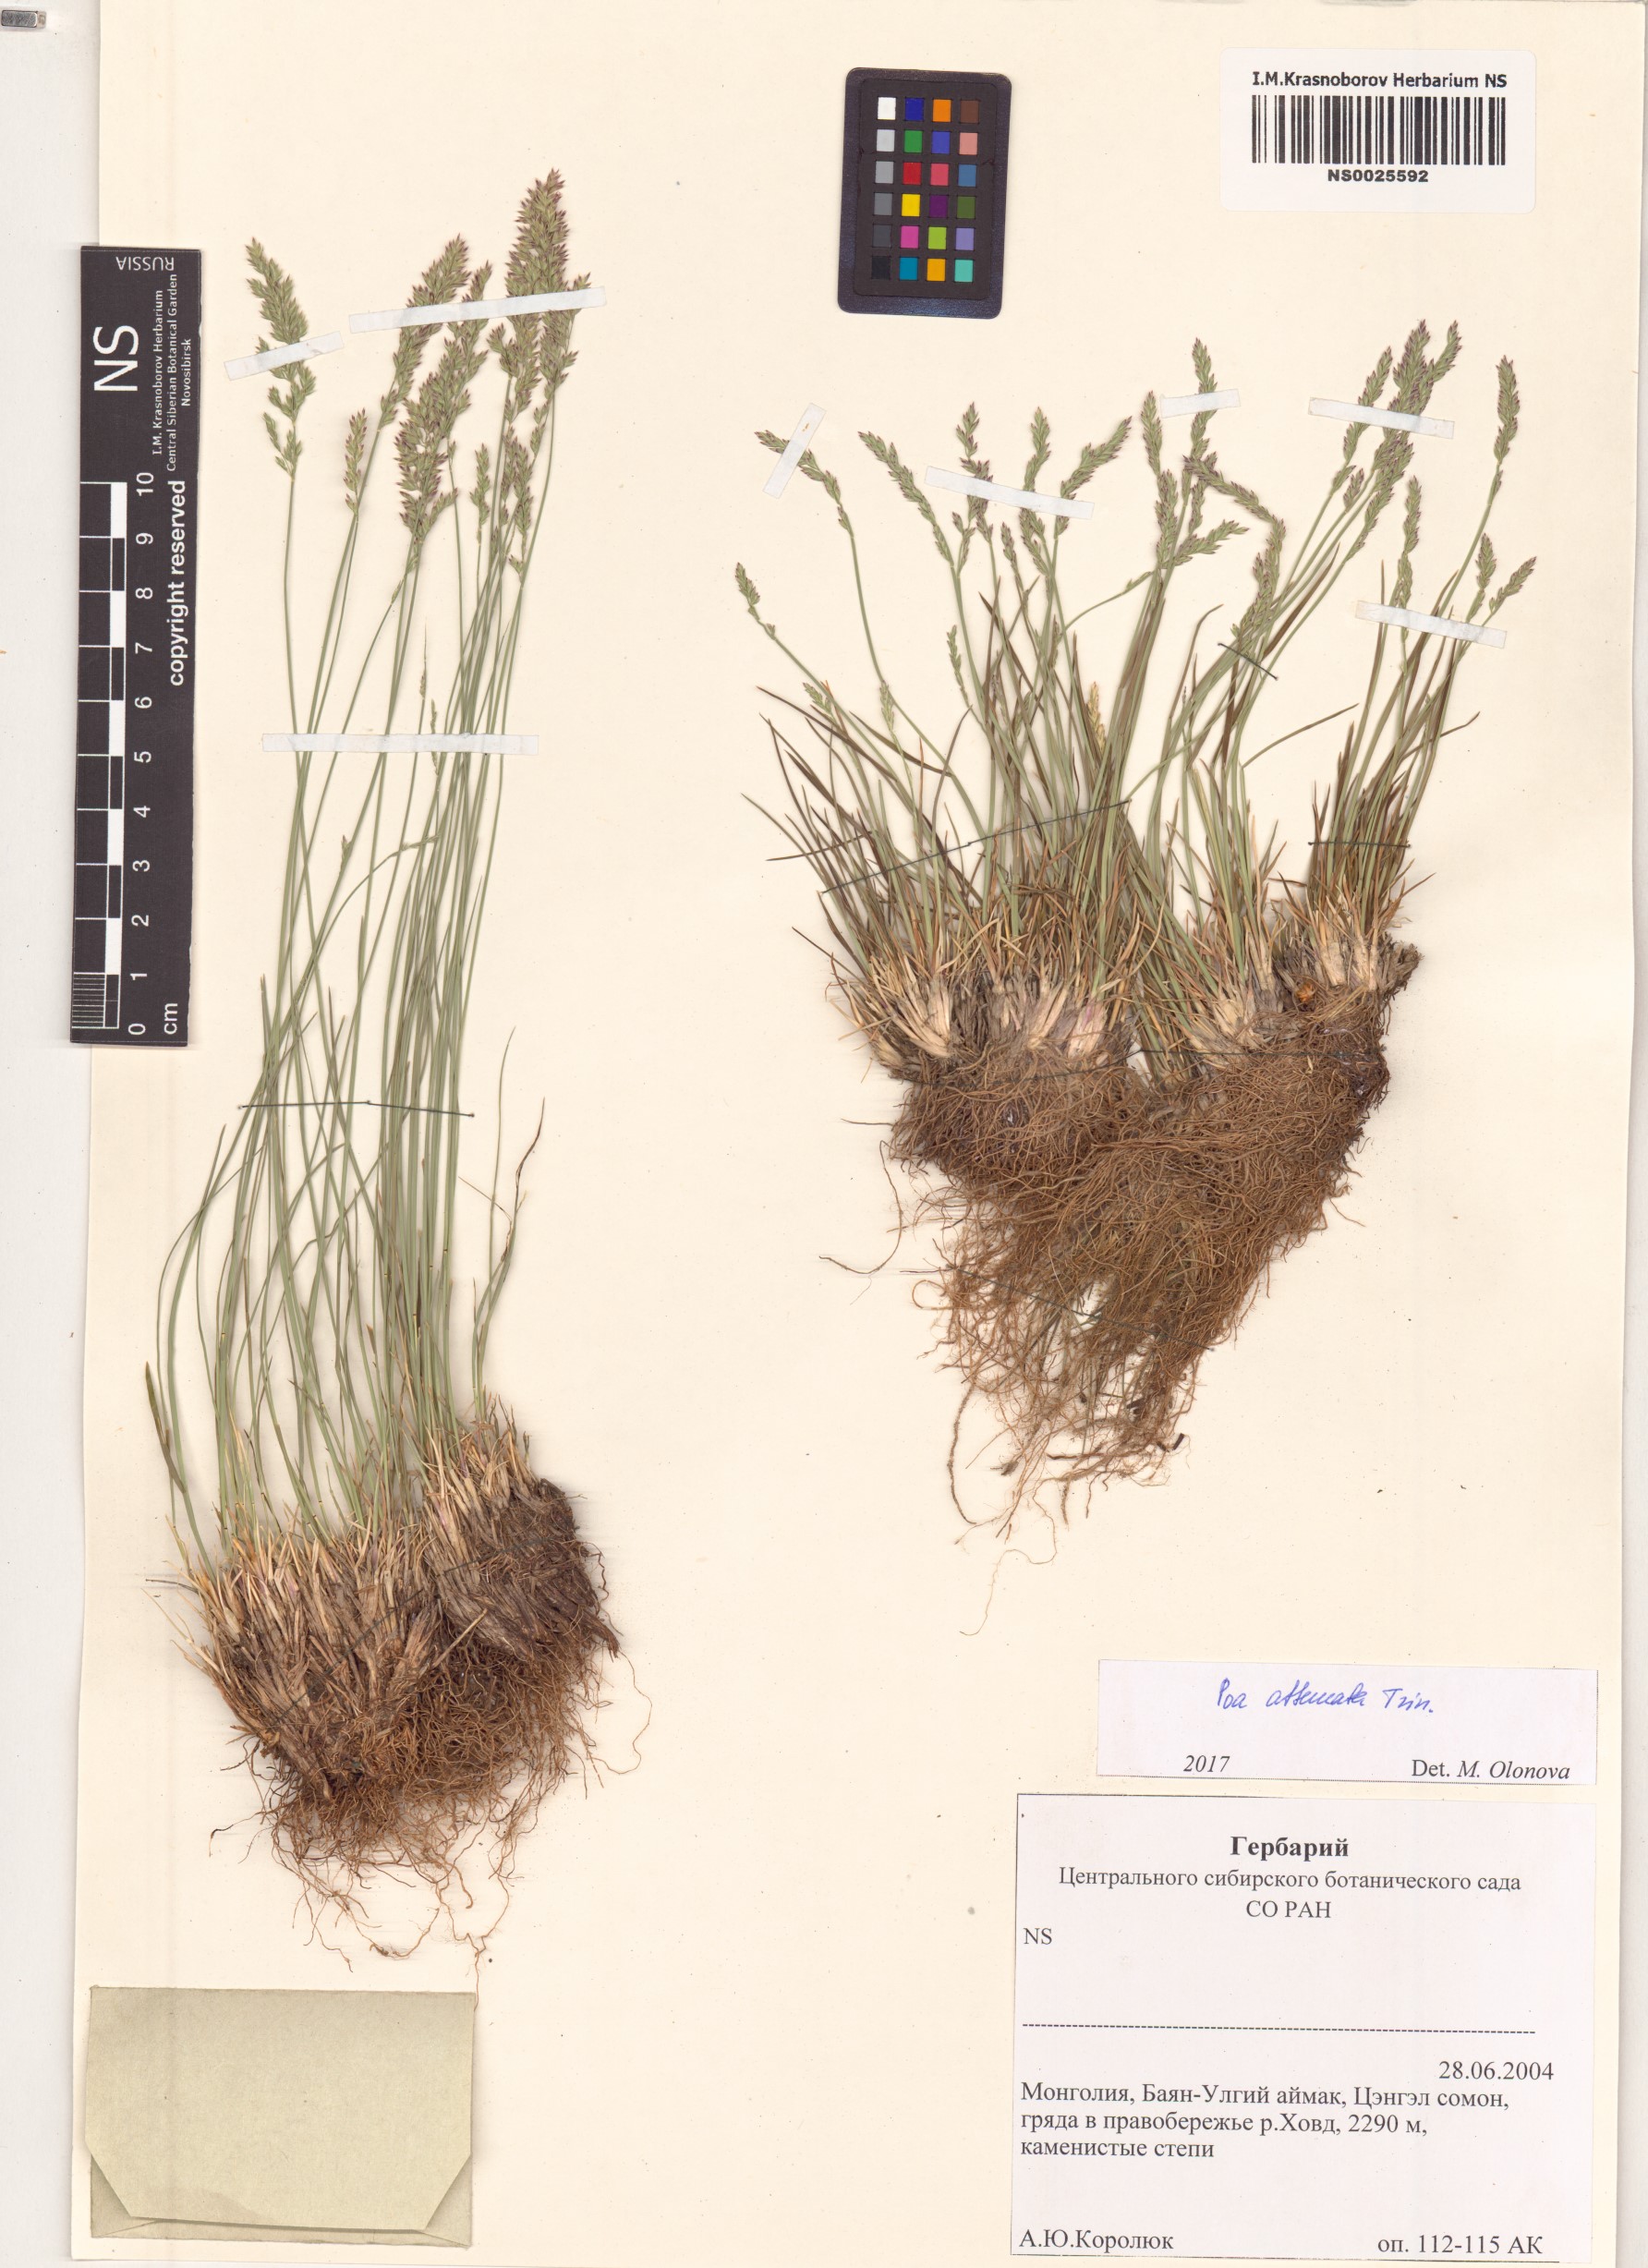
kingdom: Plantae
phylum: Tracheophyta
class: Liliopsida
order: Poales
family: Poaceae
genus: Poa
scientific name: Poa attenuata
